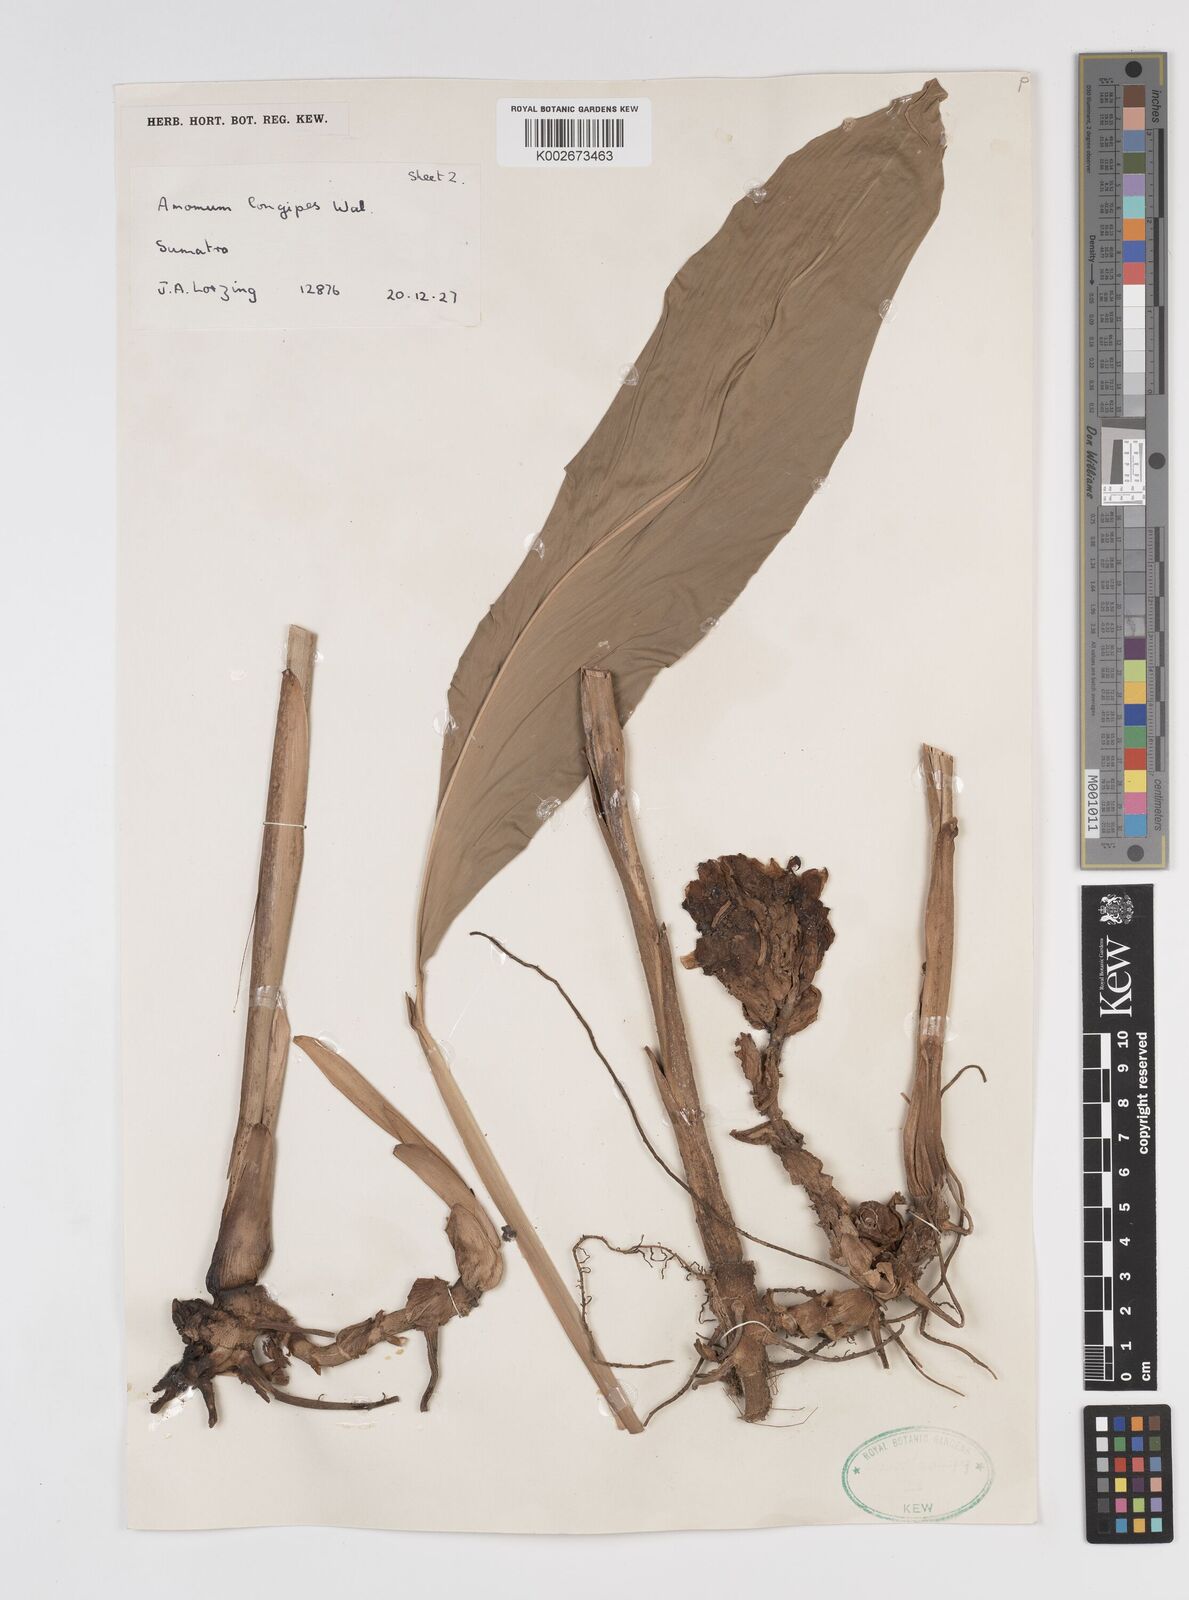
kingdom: Plantae
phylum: Tracheophyta
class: Liliopsida
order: Zingiberales
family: Zingiberaceae
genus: Amomum
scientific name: Amomum longipes
